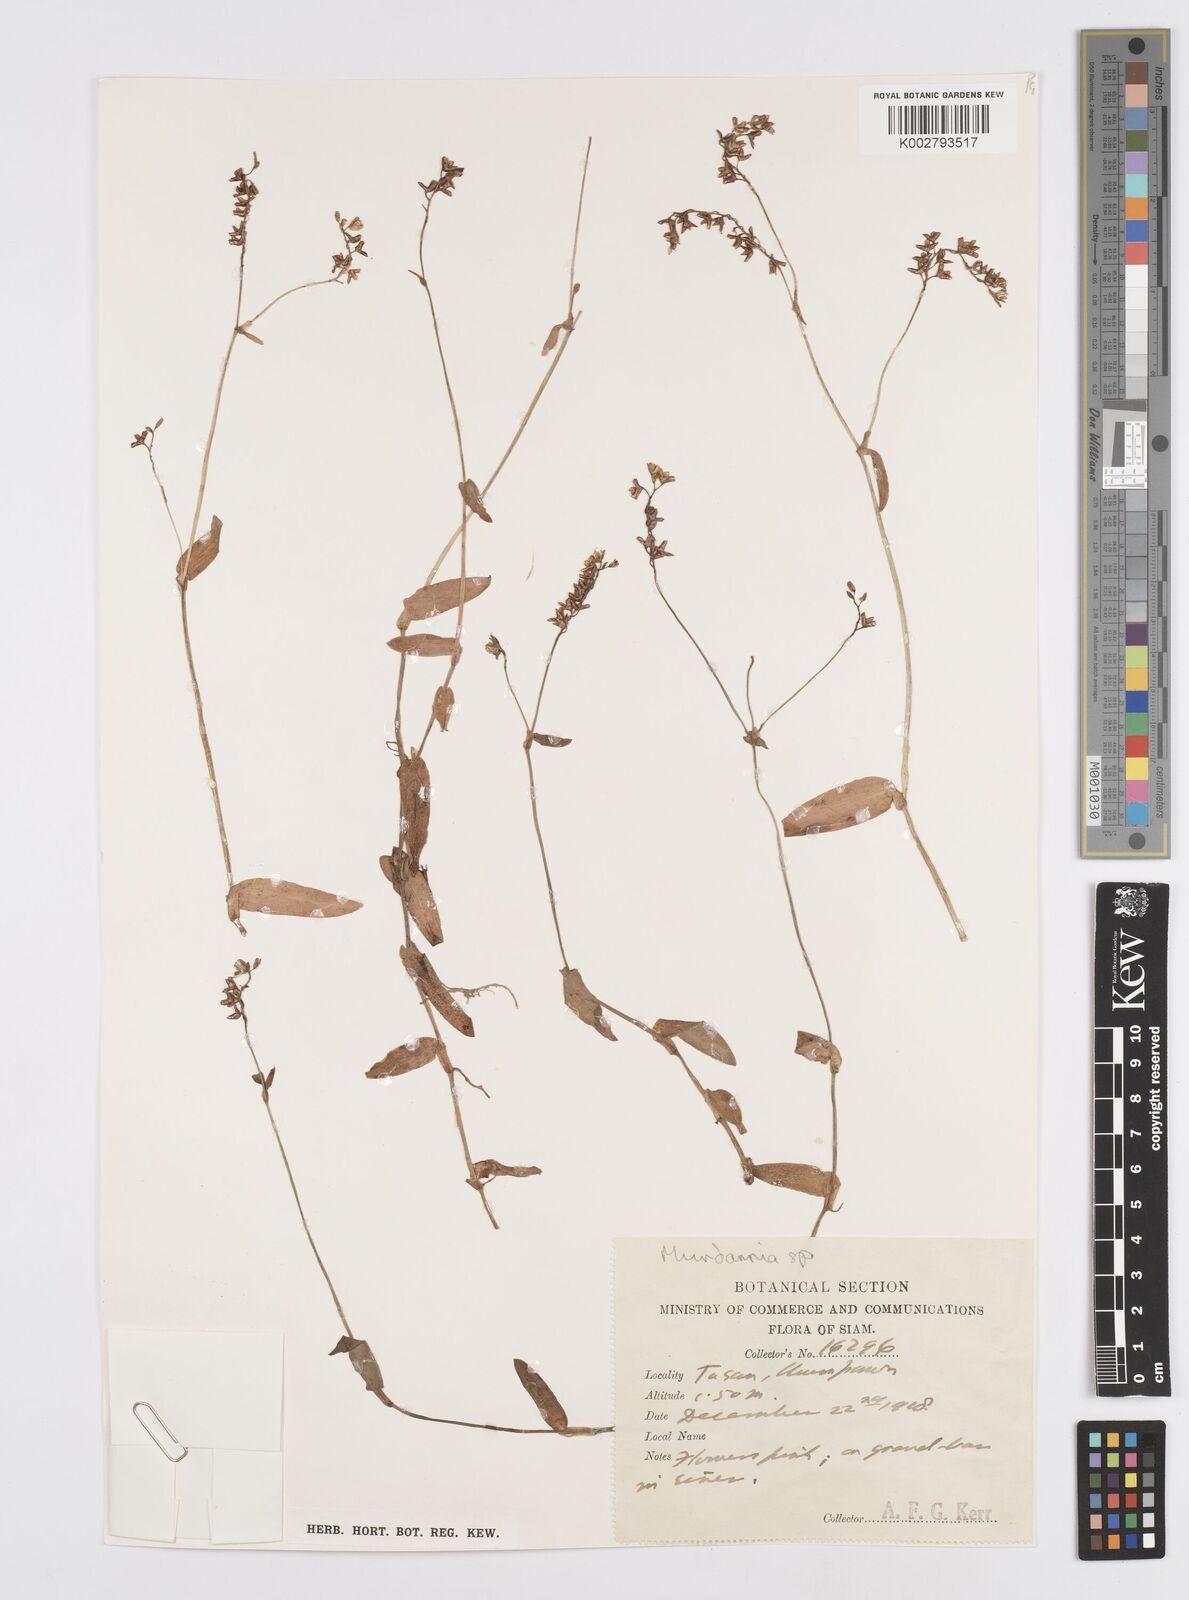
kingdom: Plantae
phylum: Tracheophyta
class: Liliopsida
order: Commelinales
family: Commelinaceae
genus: Murdannia
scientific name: Murdannia
